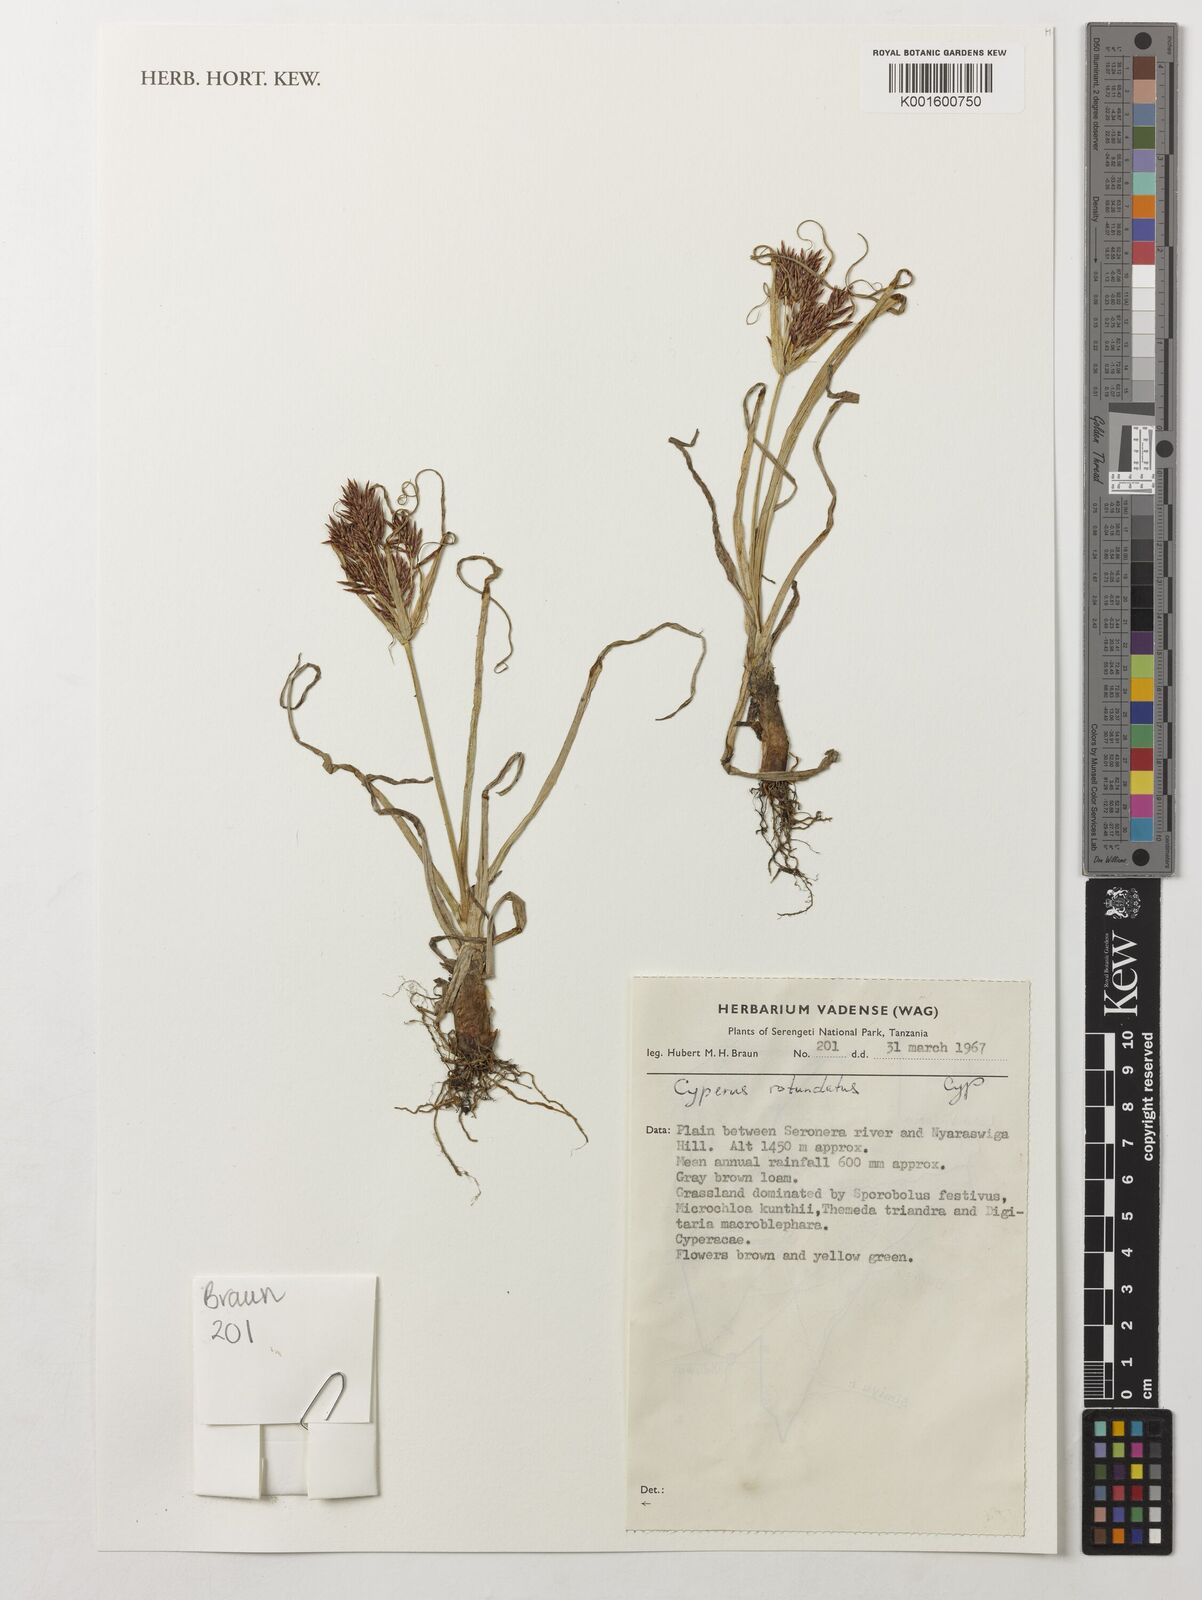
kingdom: Plantae
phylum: Tracheophyta
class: Liliopsida
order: Poales
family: Cyperaceae
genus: Cyperus
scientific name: Cyperus rotundus
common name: Nutgrass
